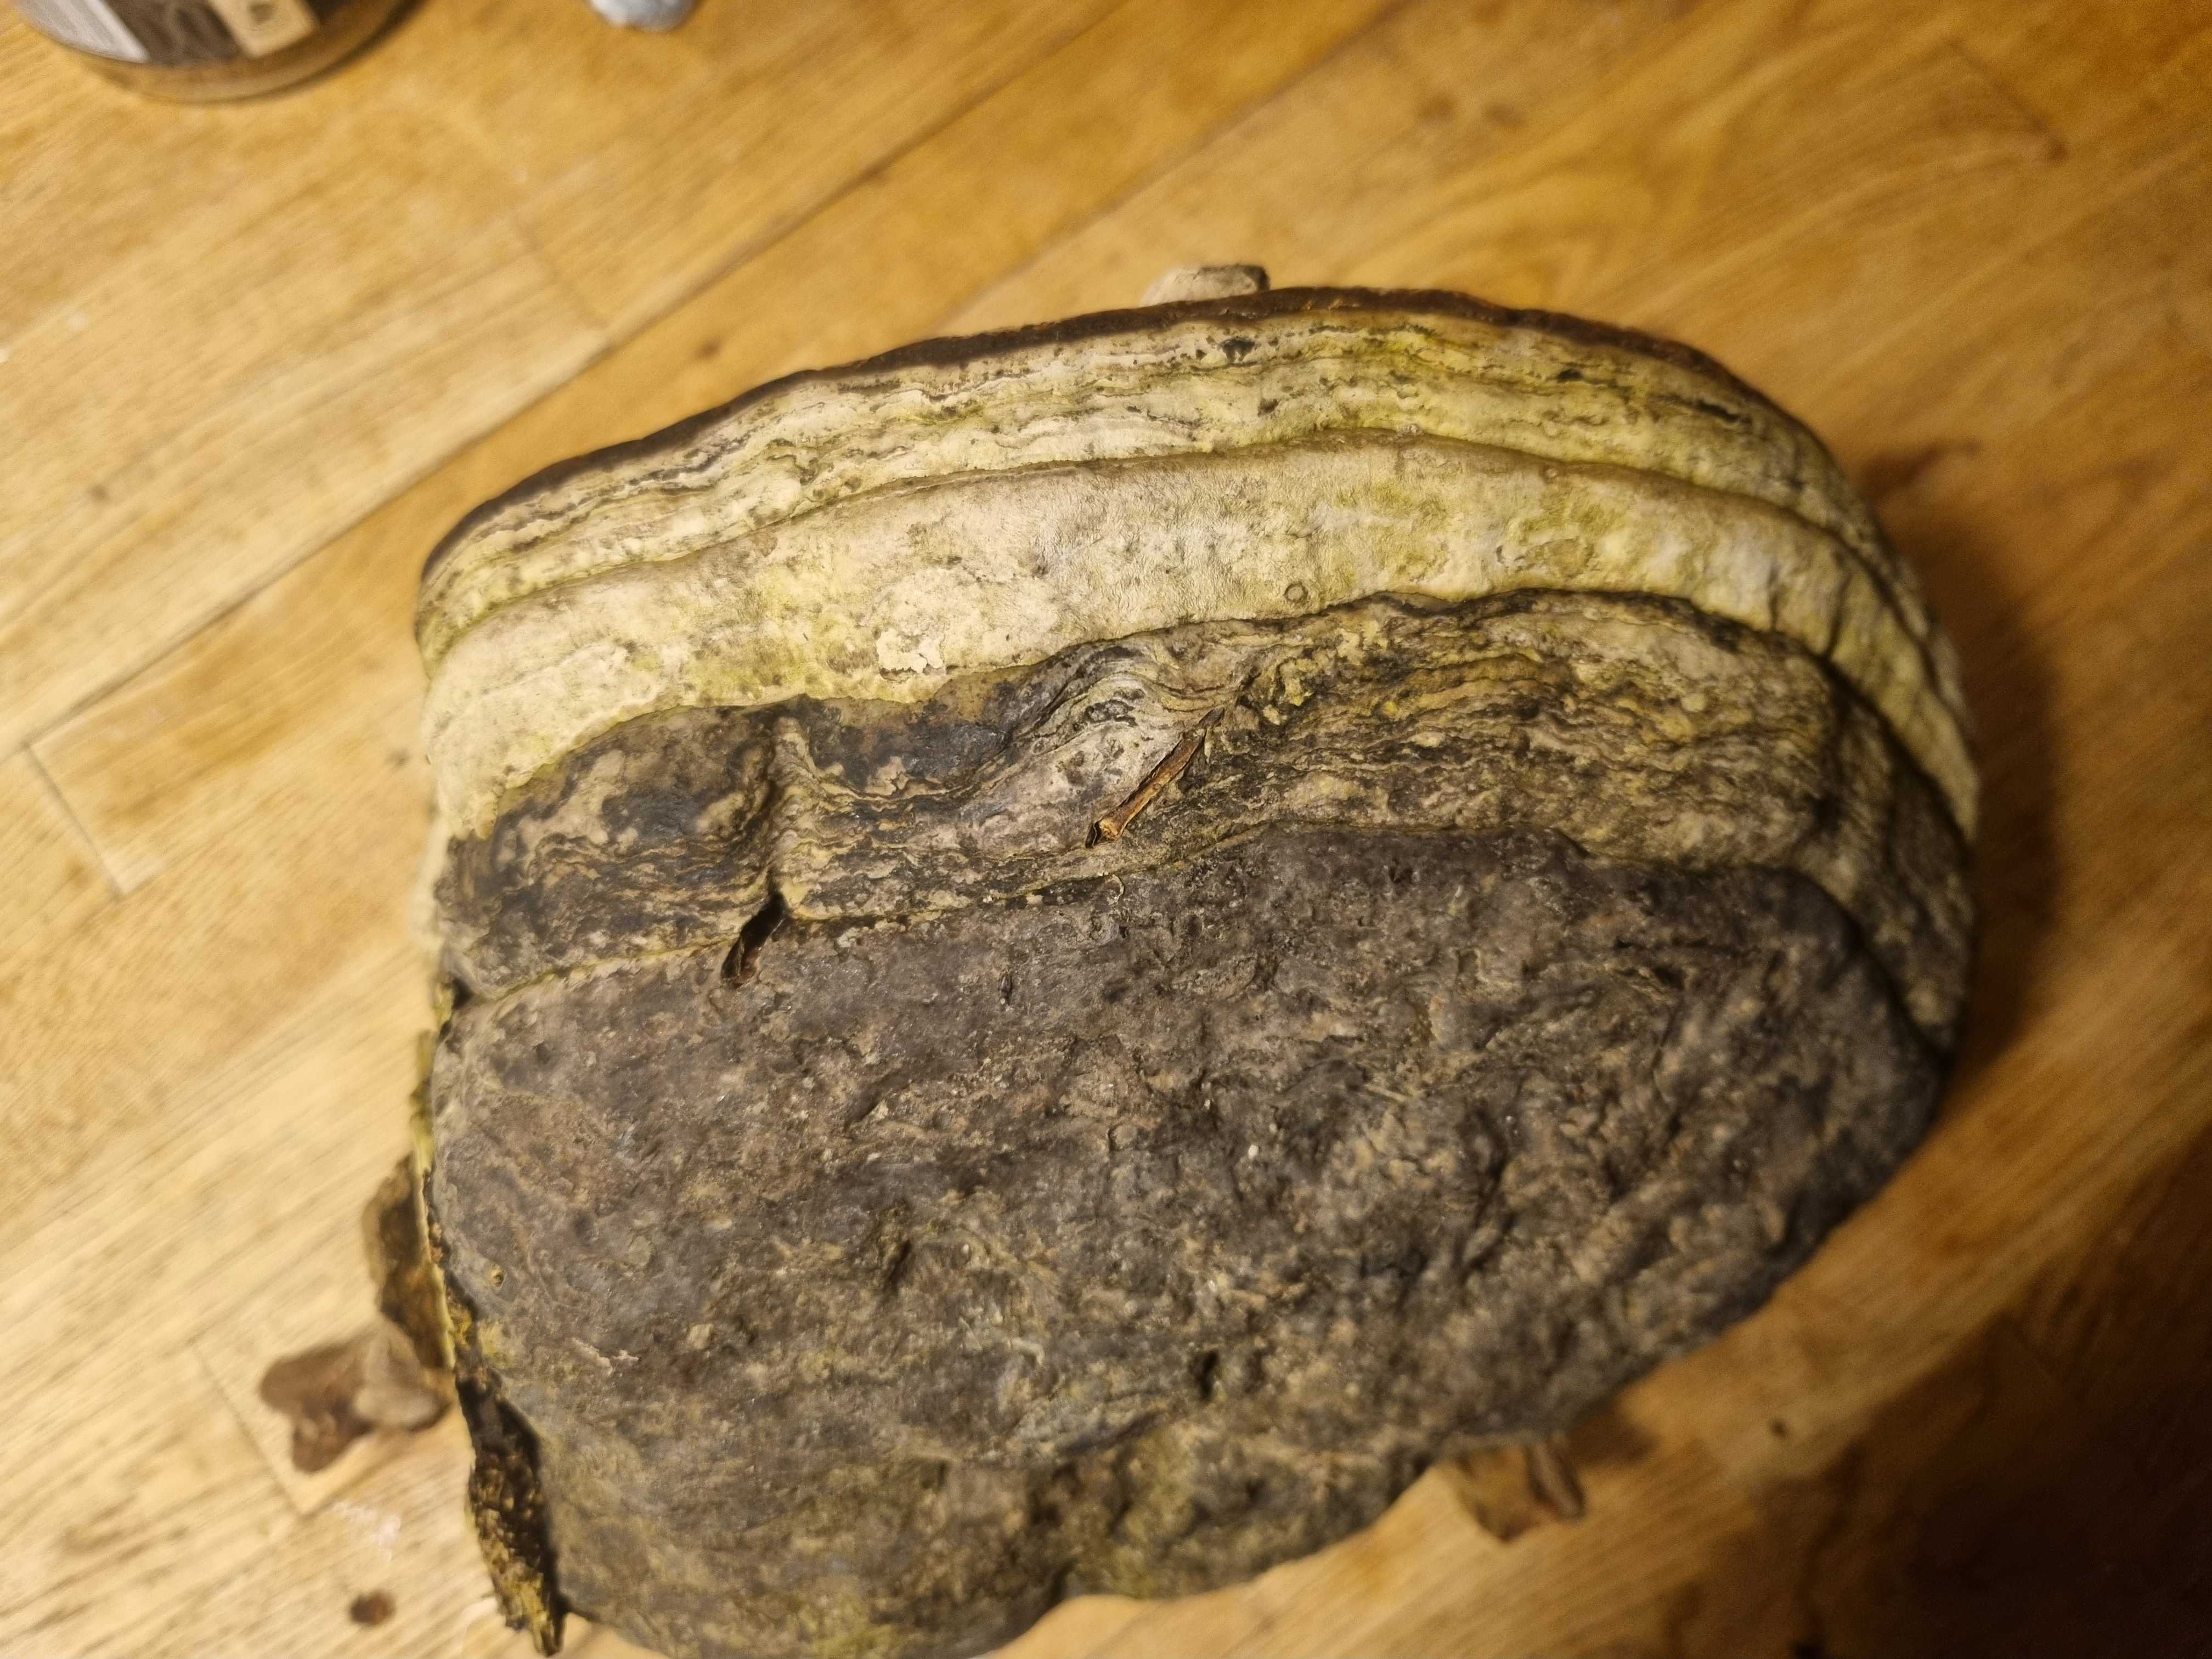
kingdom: Fungi
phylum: Basidiomycota
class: Agaricomycetes
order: Polyporales
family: Polyporaceae
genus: Fomes
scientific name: Fomes fomentarius
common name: tøndersvamp
